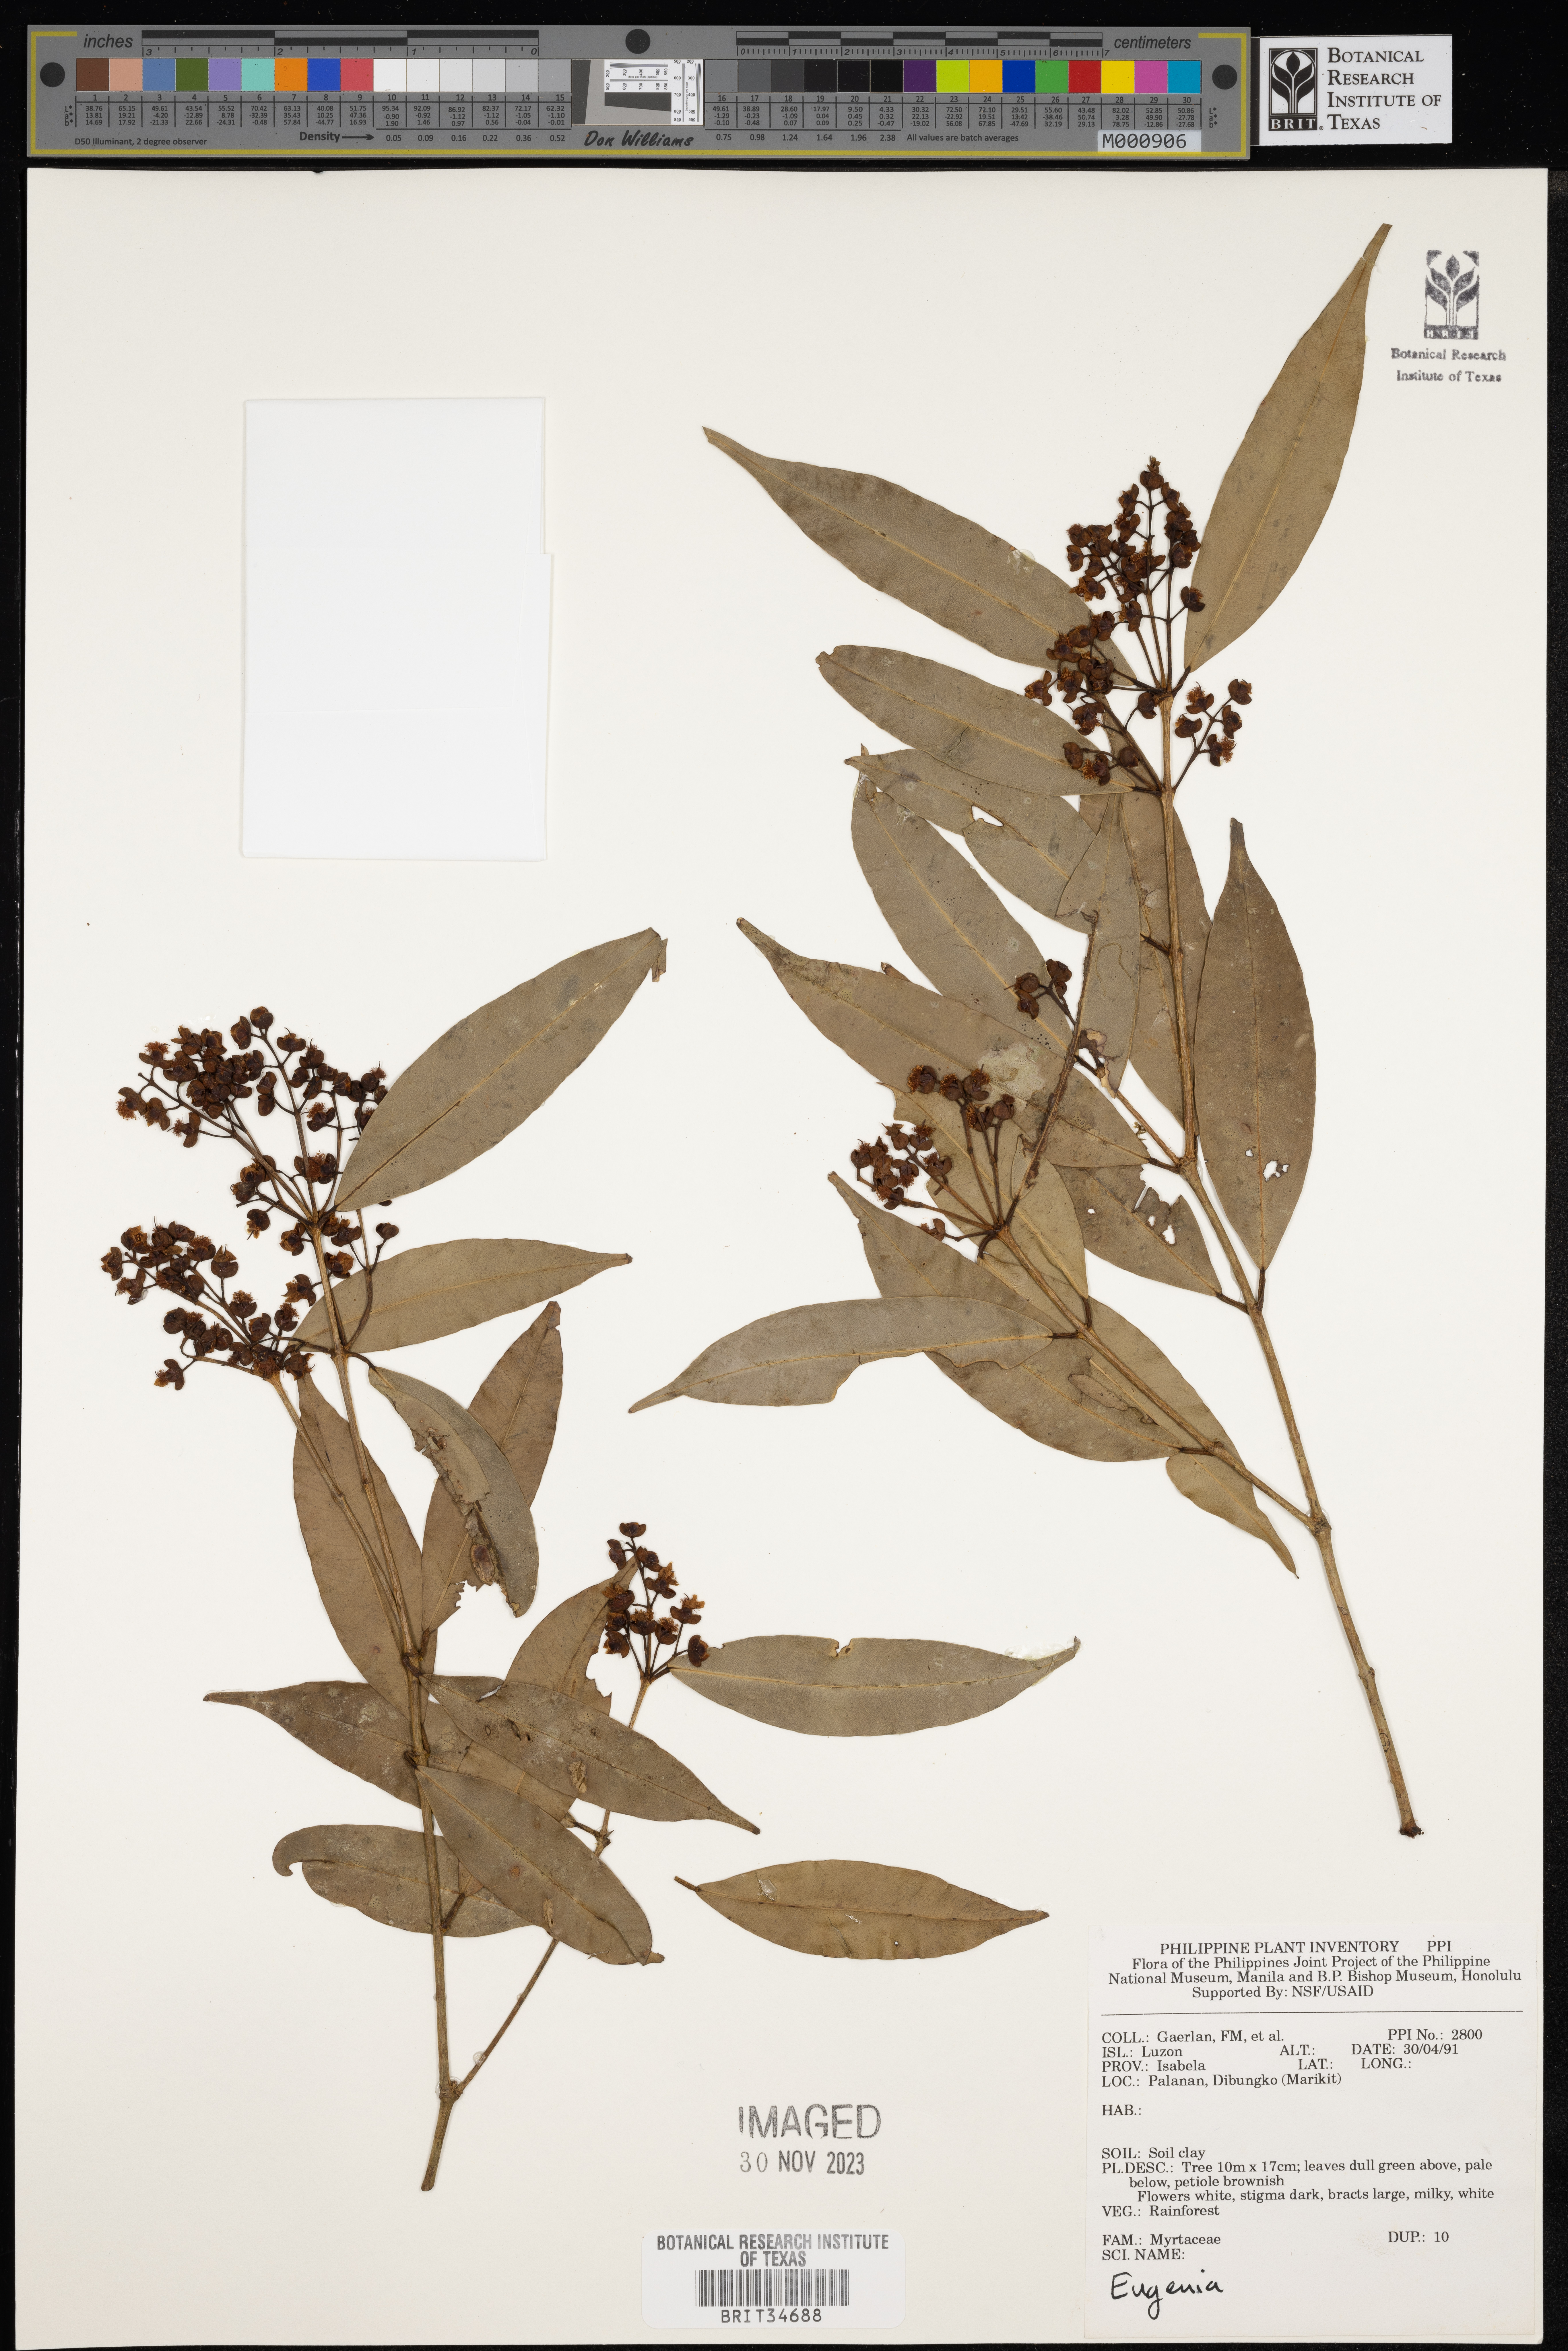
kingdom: Plantae
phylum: Tracheophyta
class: Magnoliopsida
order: Myrtales
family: Myrtaceae
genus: Eugenia
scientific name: Eugenia
